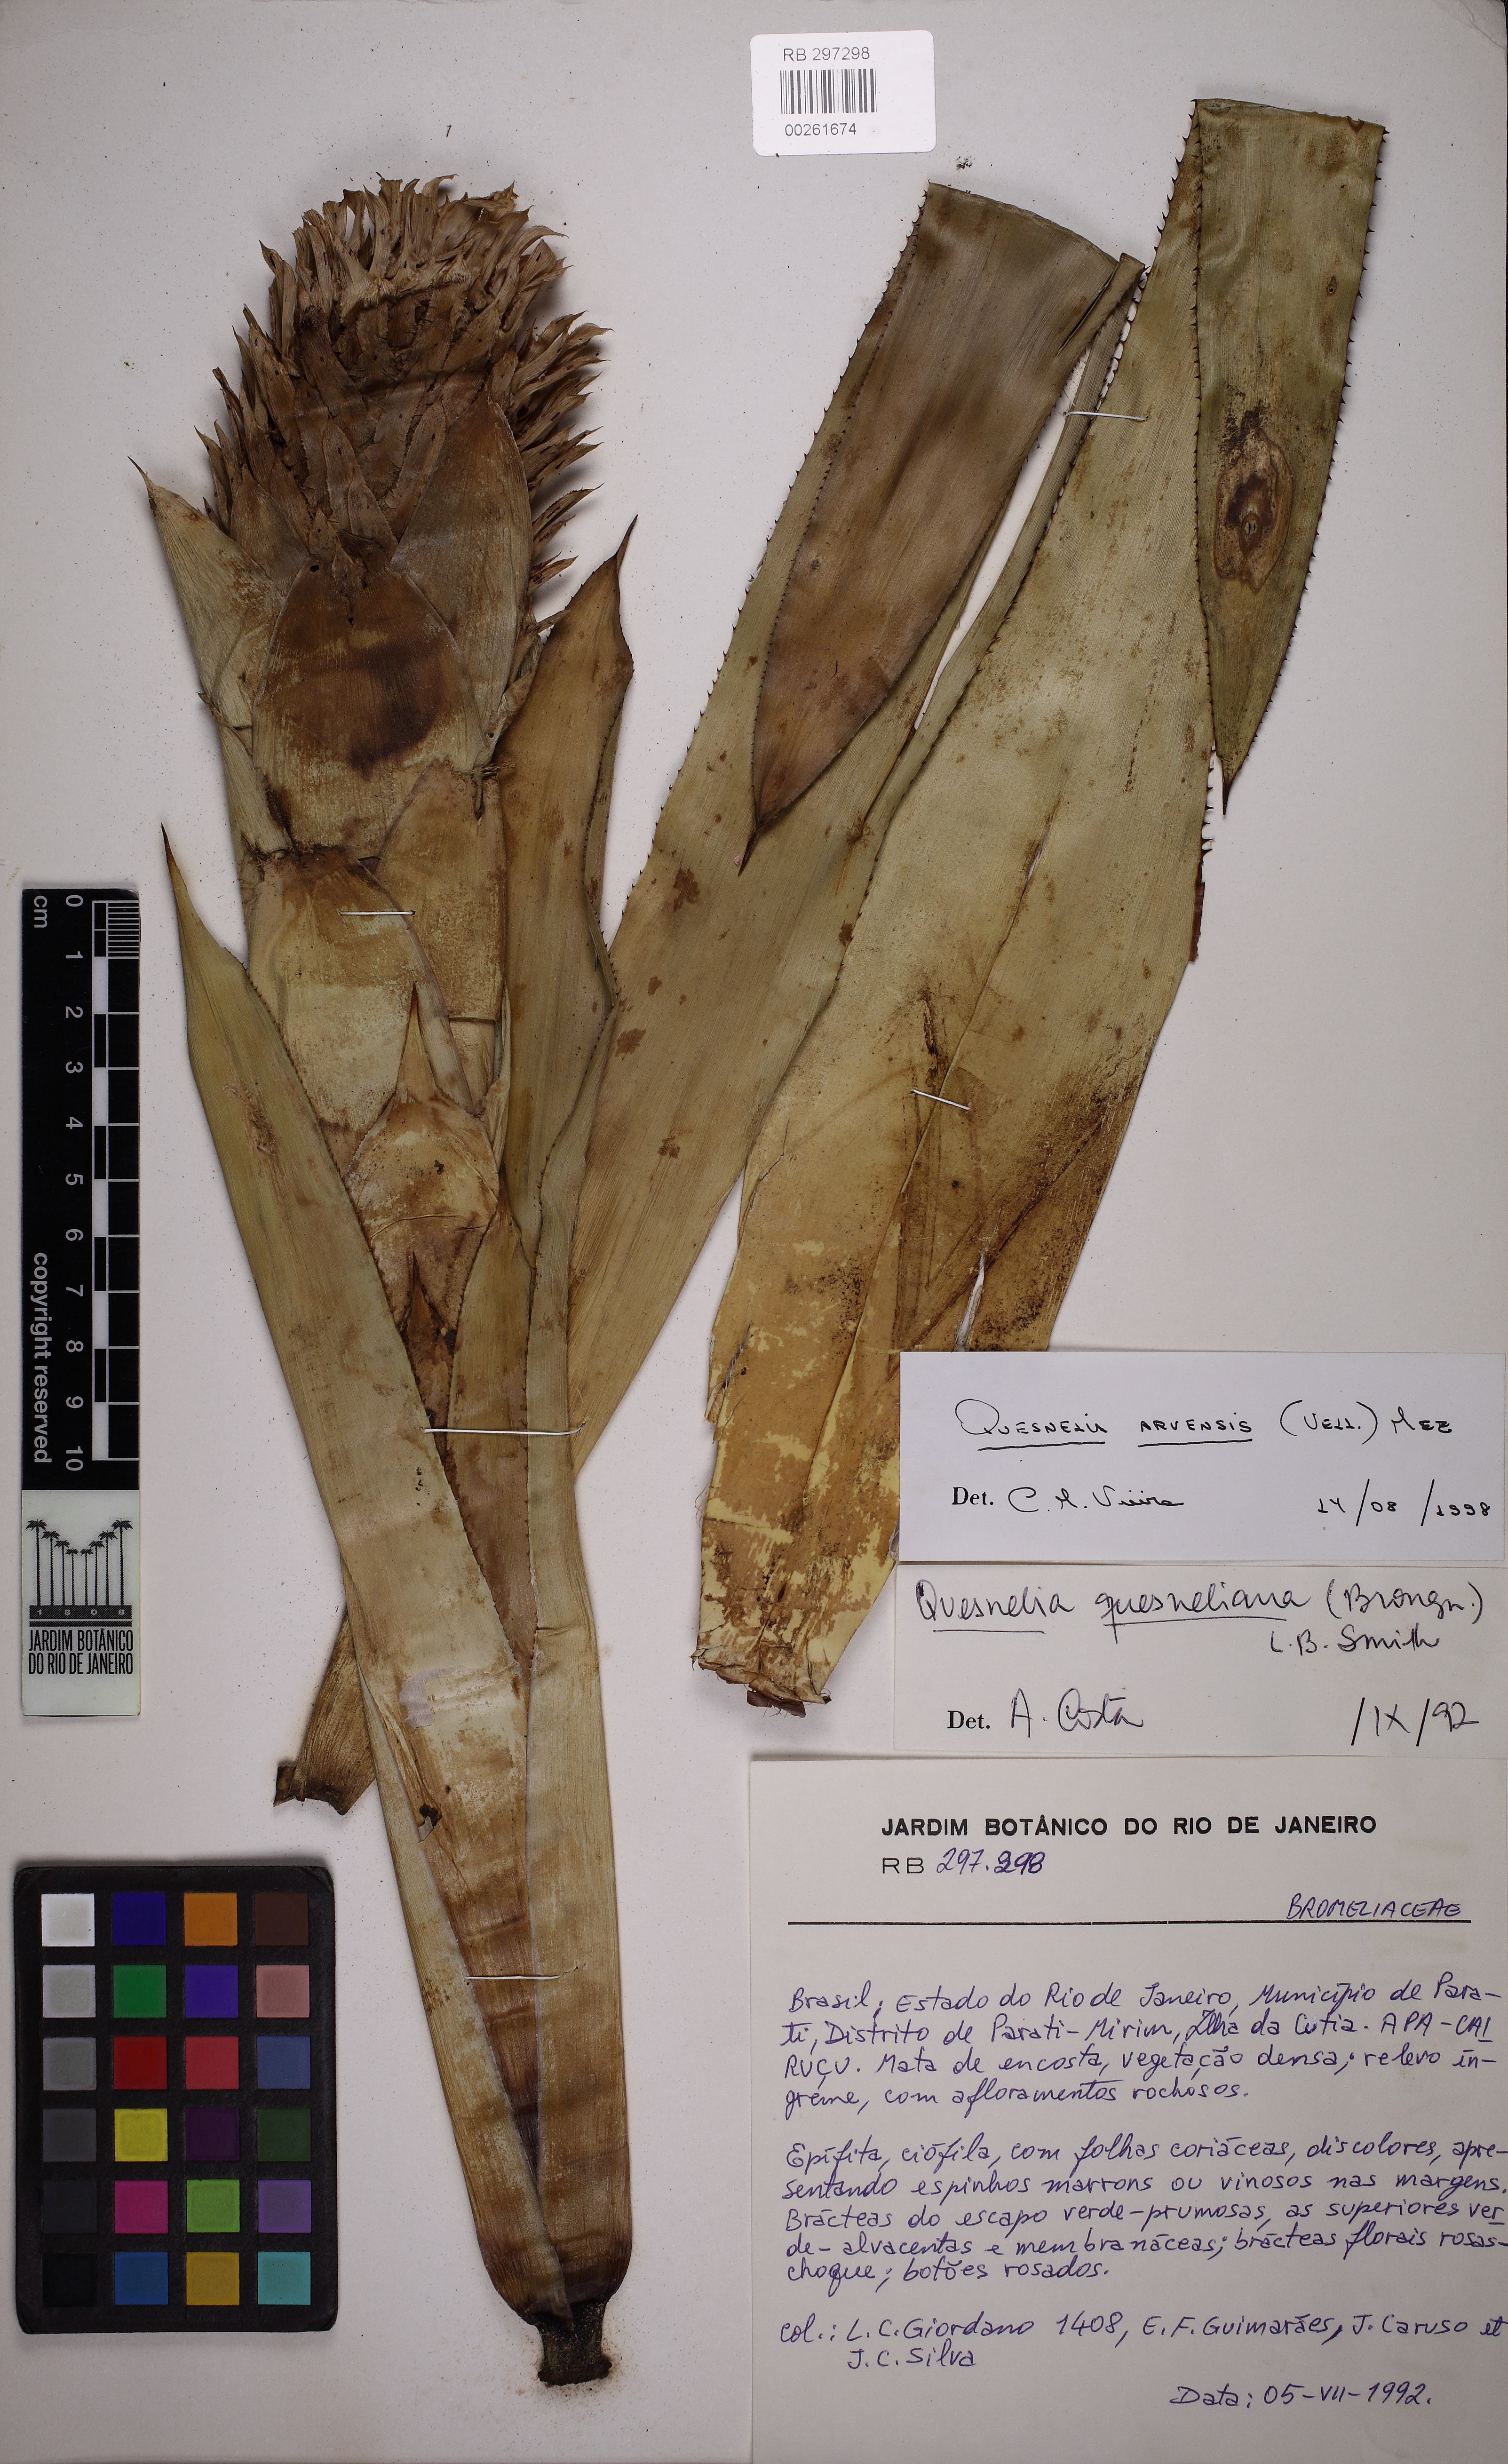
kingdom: Plantae
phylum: Tracheophyta
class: Liliopsida
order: Poales
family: Bromeliaceae
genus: Quesnelia
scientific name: Quesnelia arvensis
